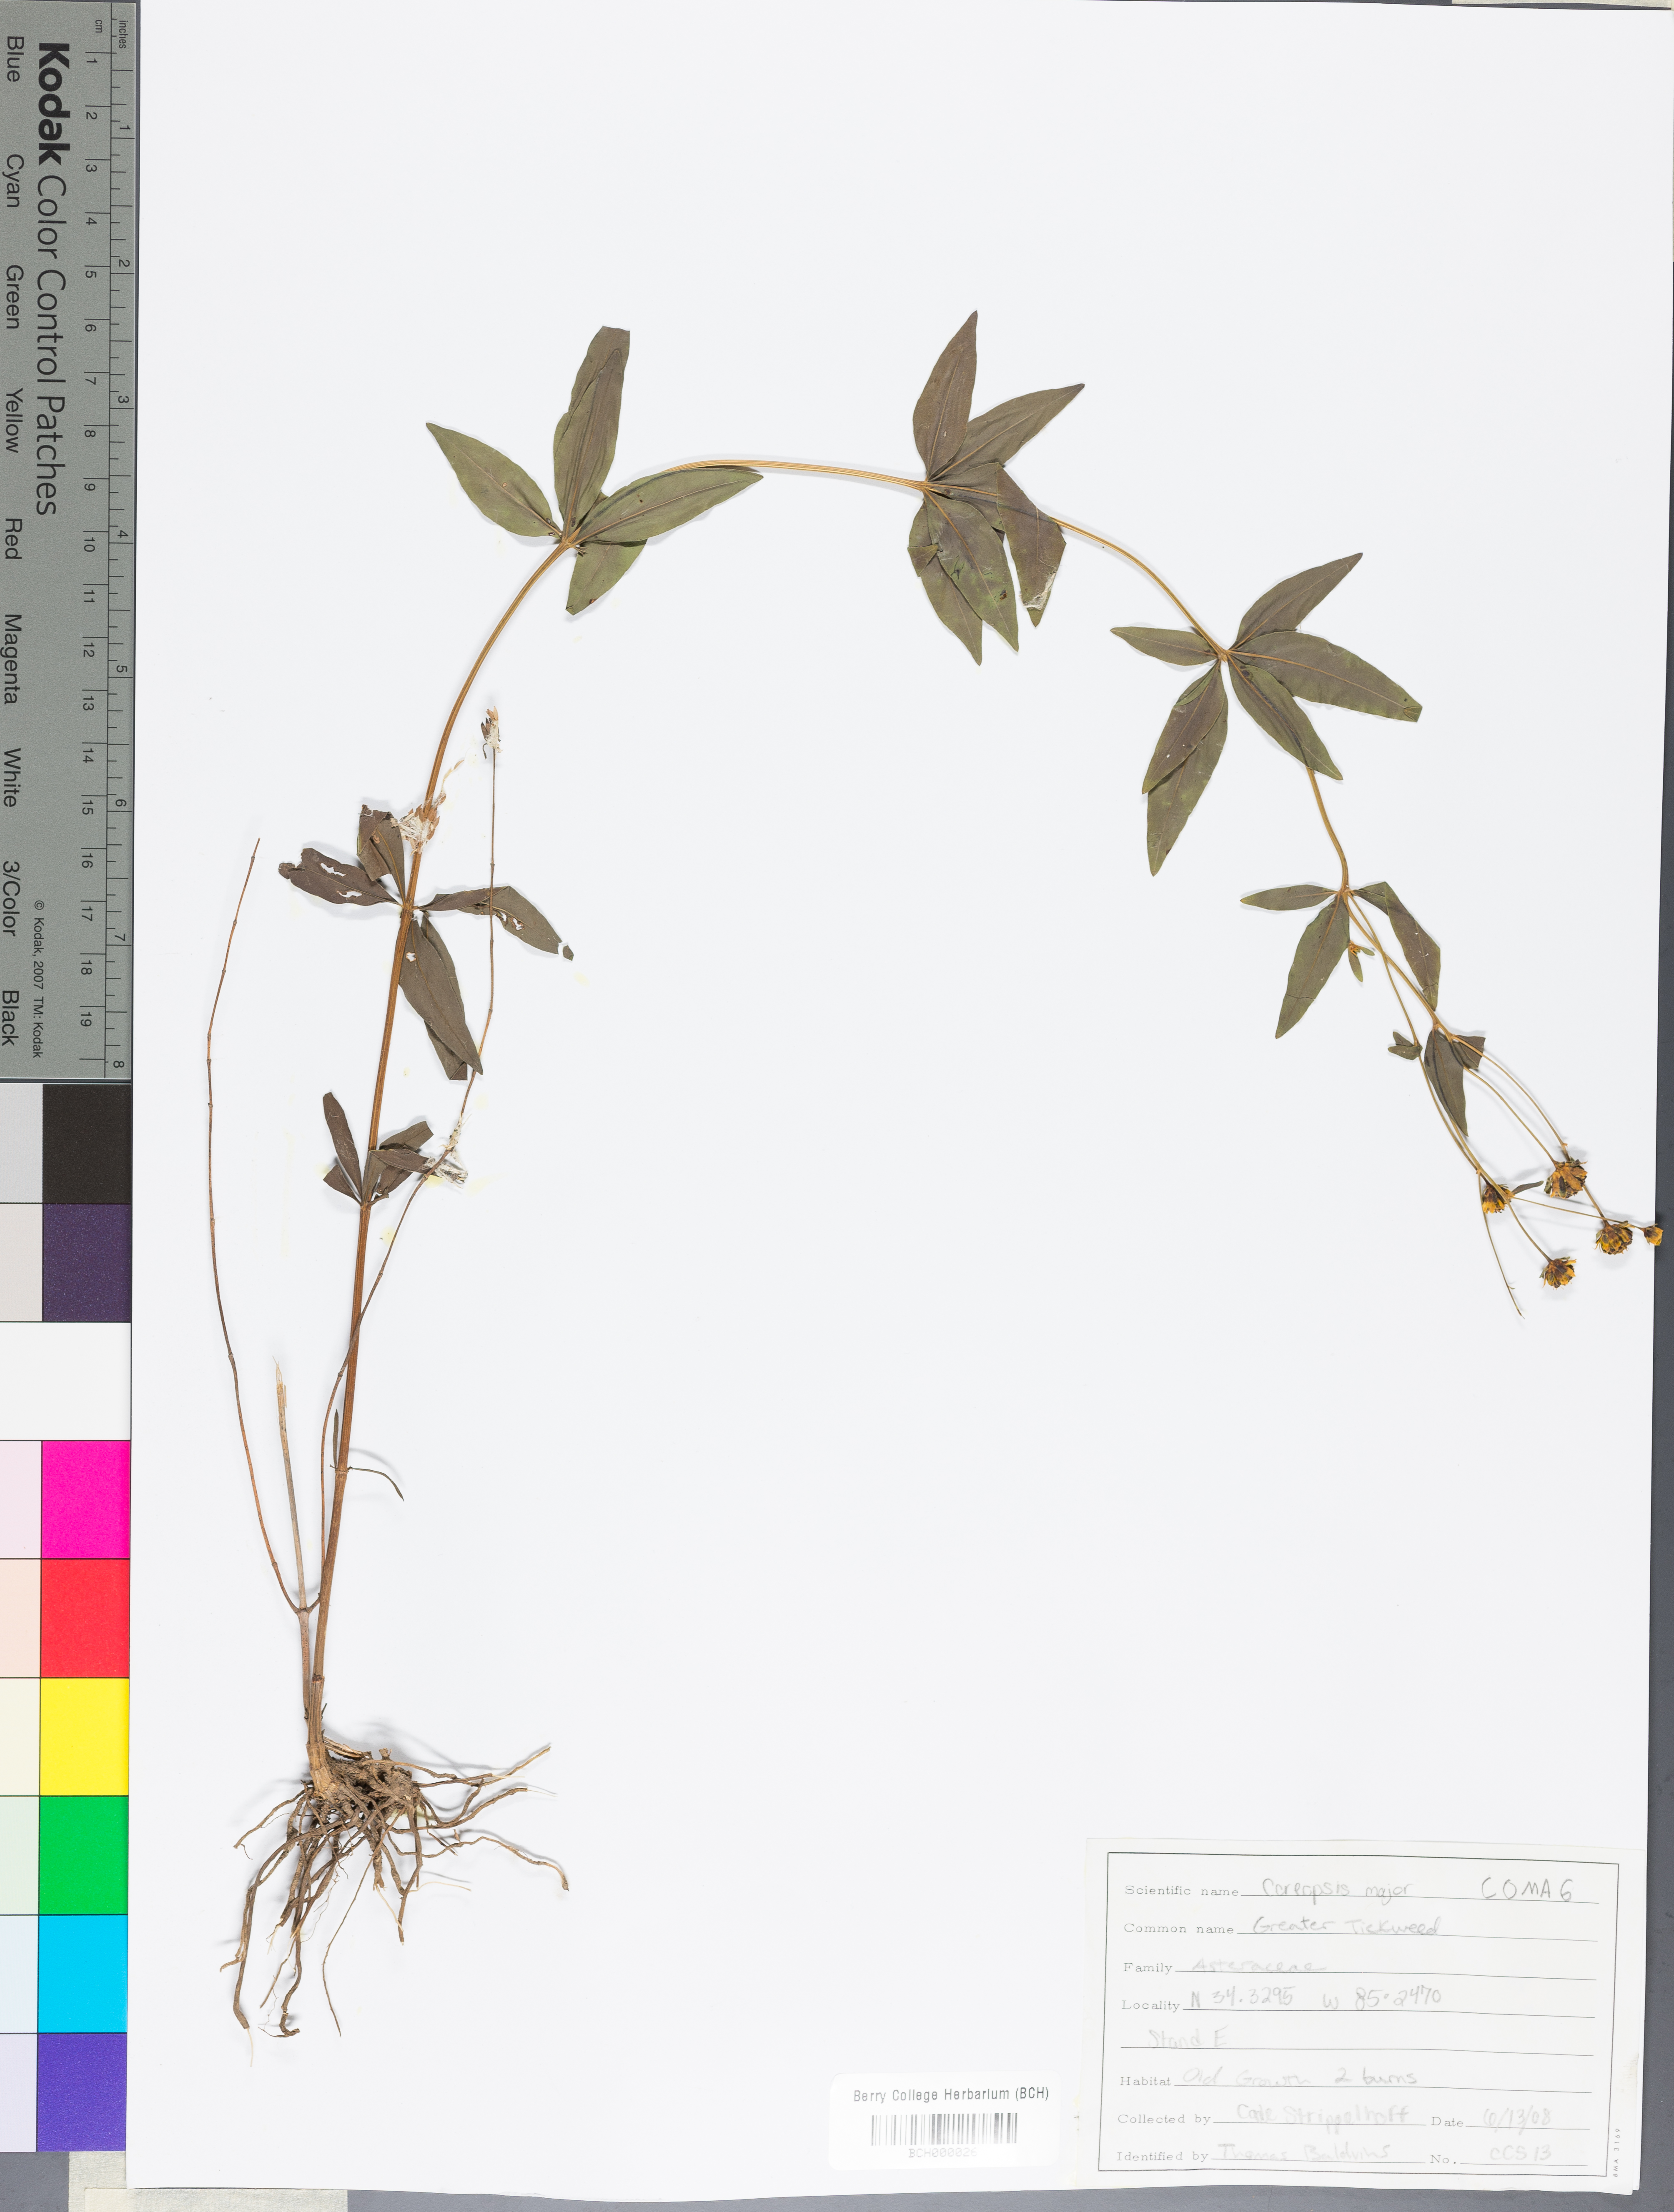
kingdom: Plantae
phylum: Tracheophyta
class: Magnoliopsida
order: Asterales
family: Asteraceae
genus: Coreopsis
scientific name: Coreopsis major
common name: Forest tickseed
